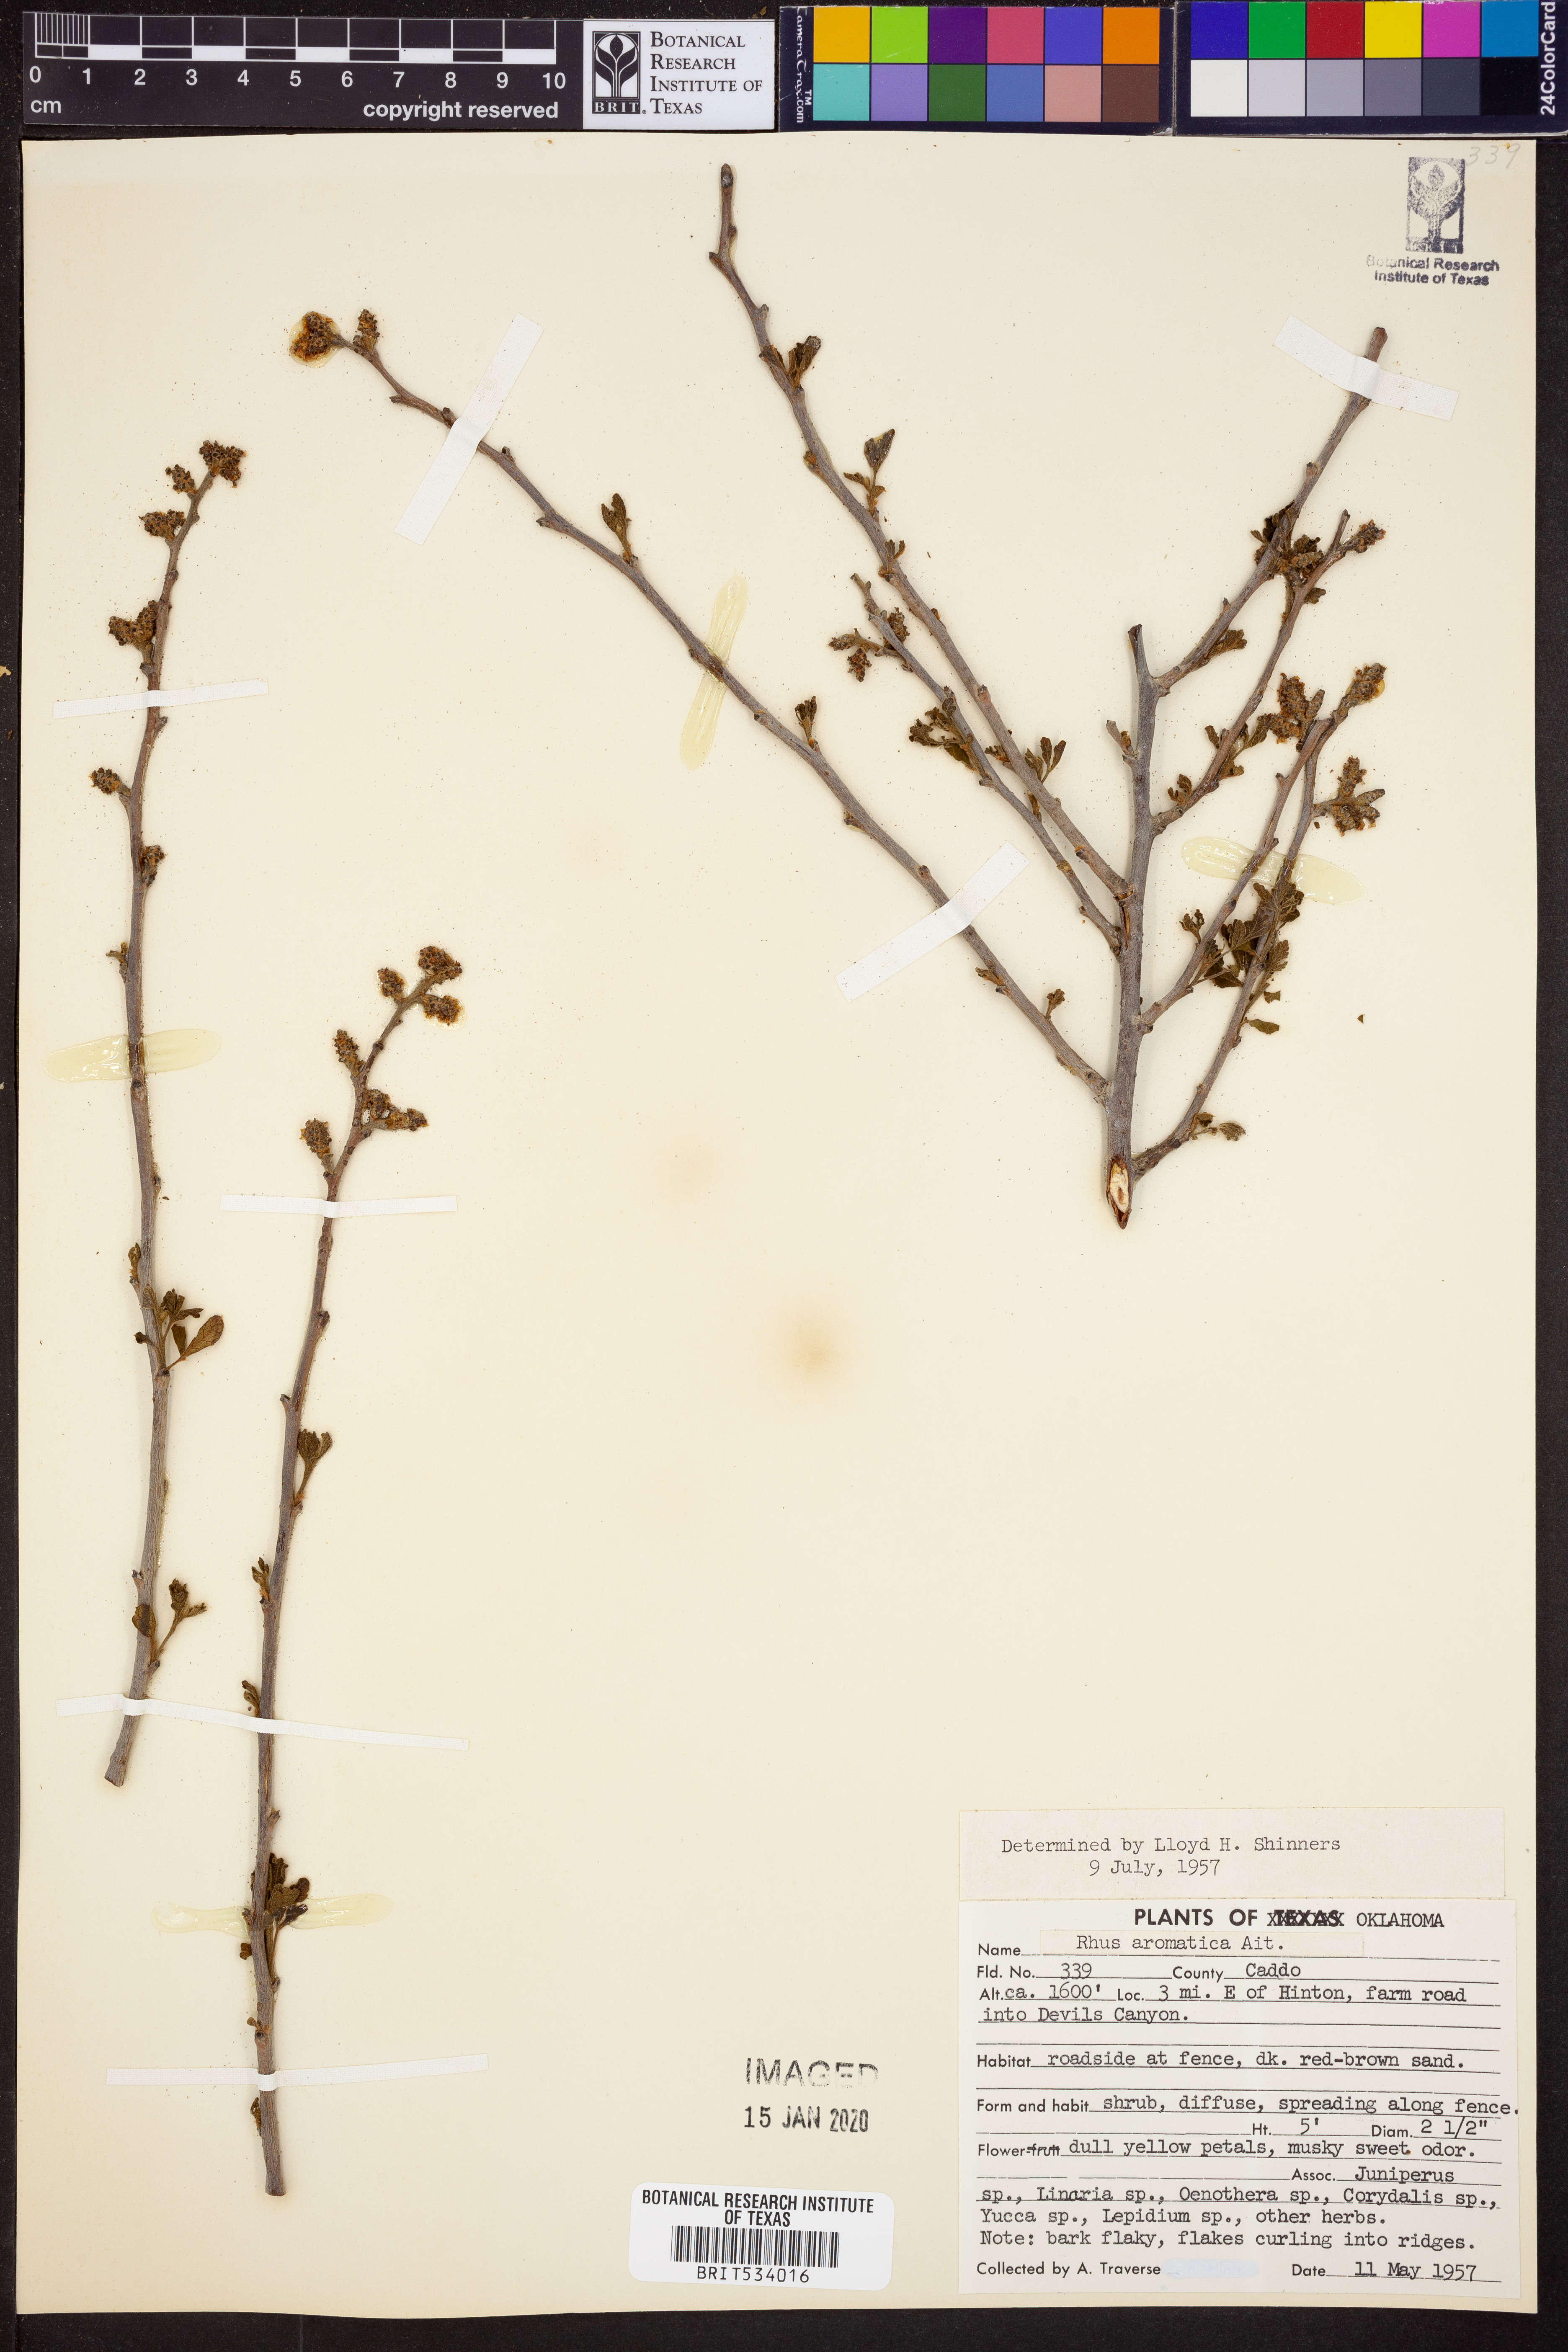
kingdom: Plantae
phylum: Tracheophyta
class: Magnoliopsida
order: Sapindales
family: Anacardiaceae
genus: Rhus
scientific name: Rhus aromatica
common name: Aromatic sumac
